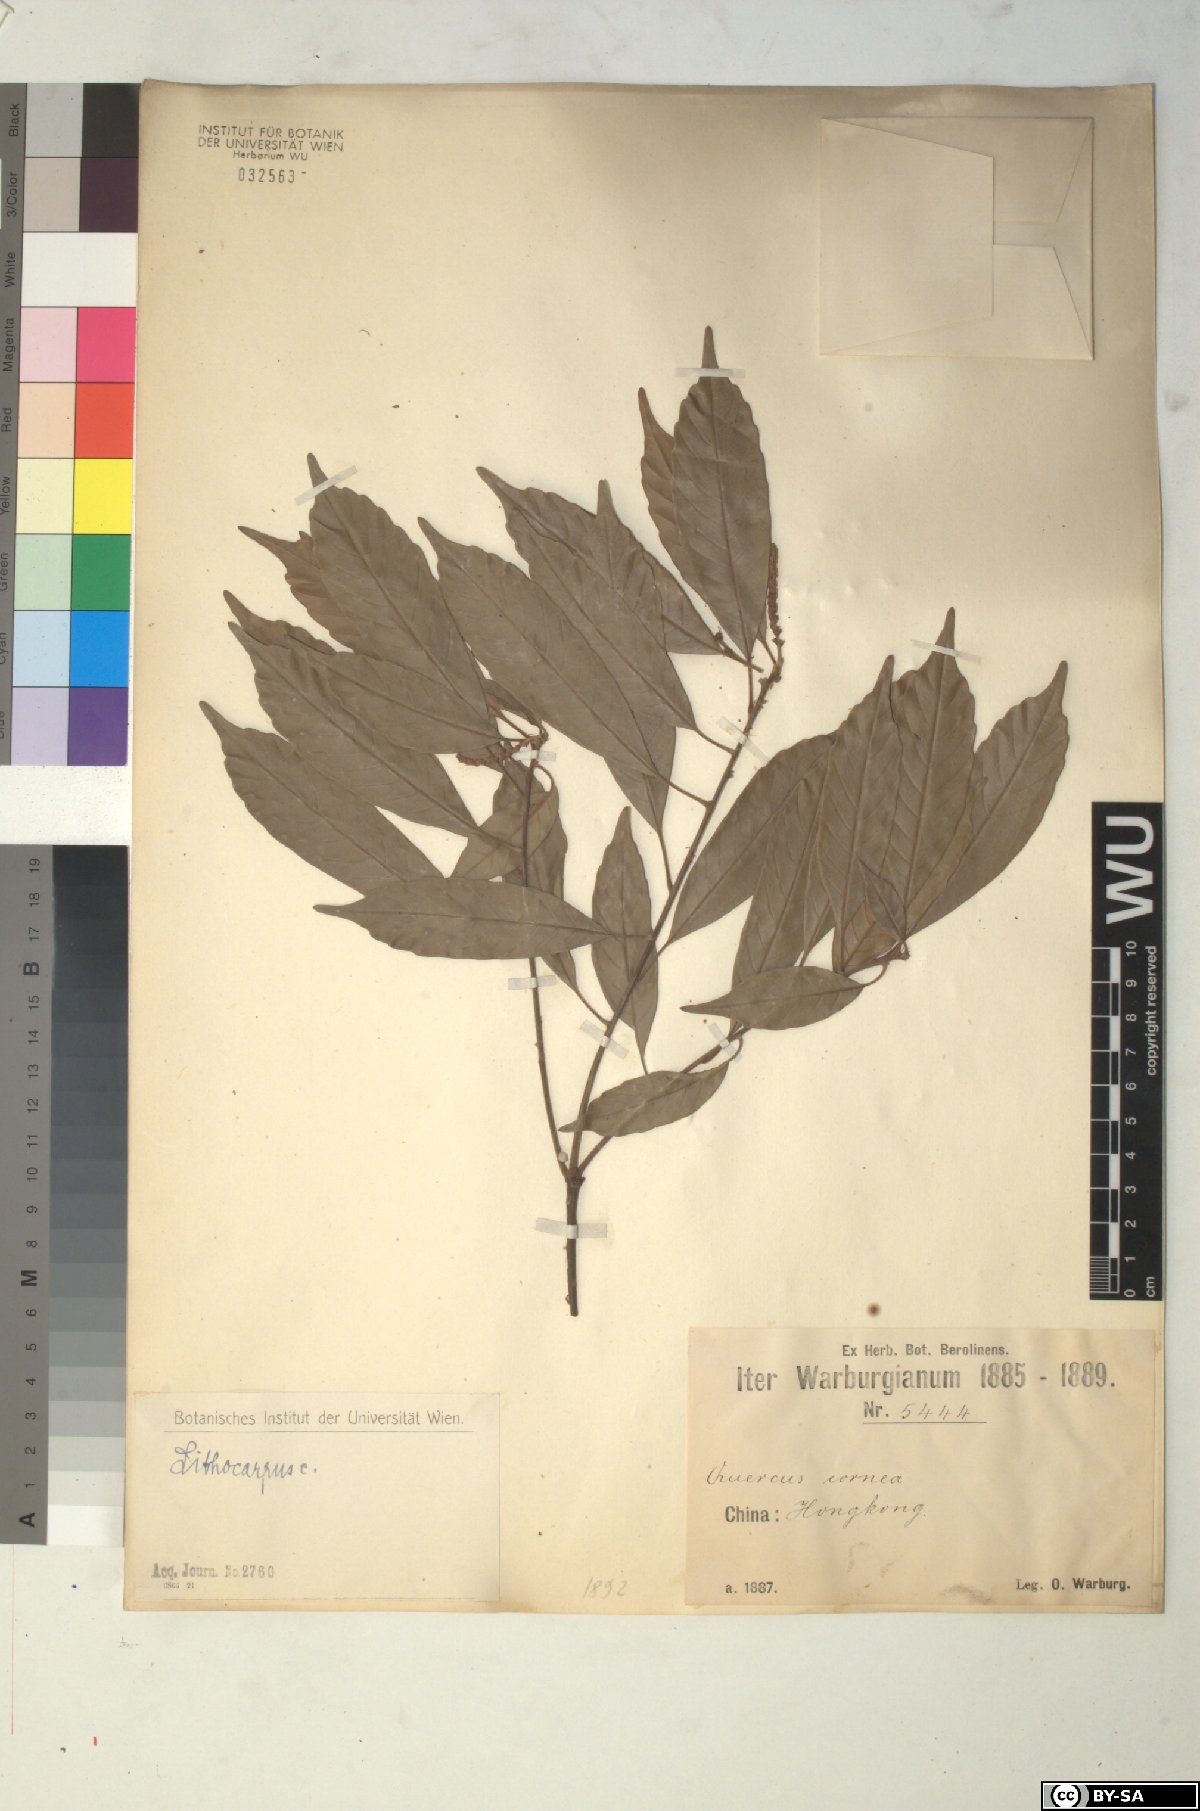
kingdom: Plantae
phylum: Tracheophyta
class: Magnoliopsida
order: Fagales
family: Fagaceae
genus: Lithocarpus
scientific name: Lithocarpus
